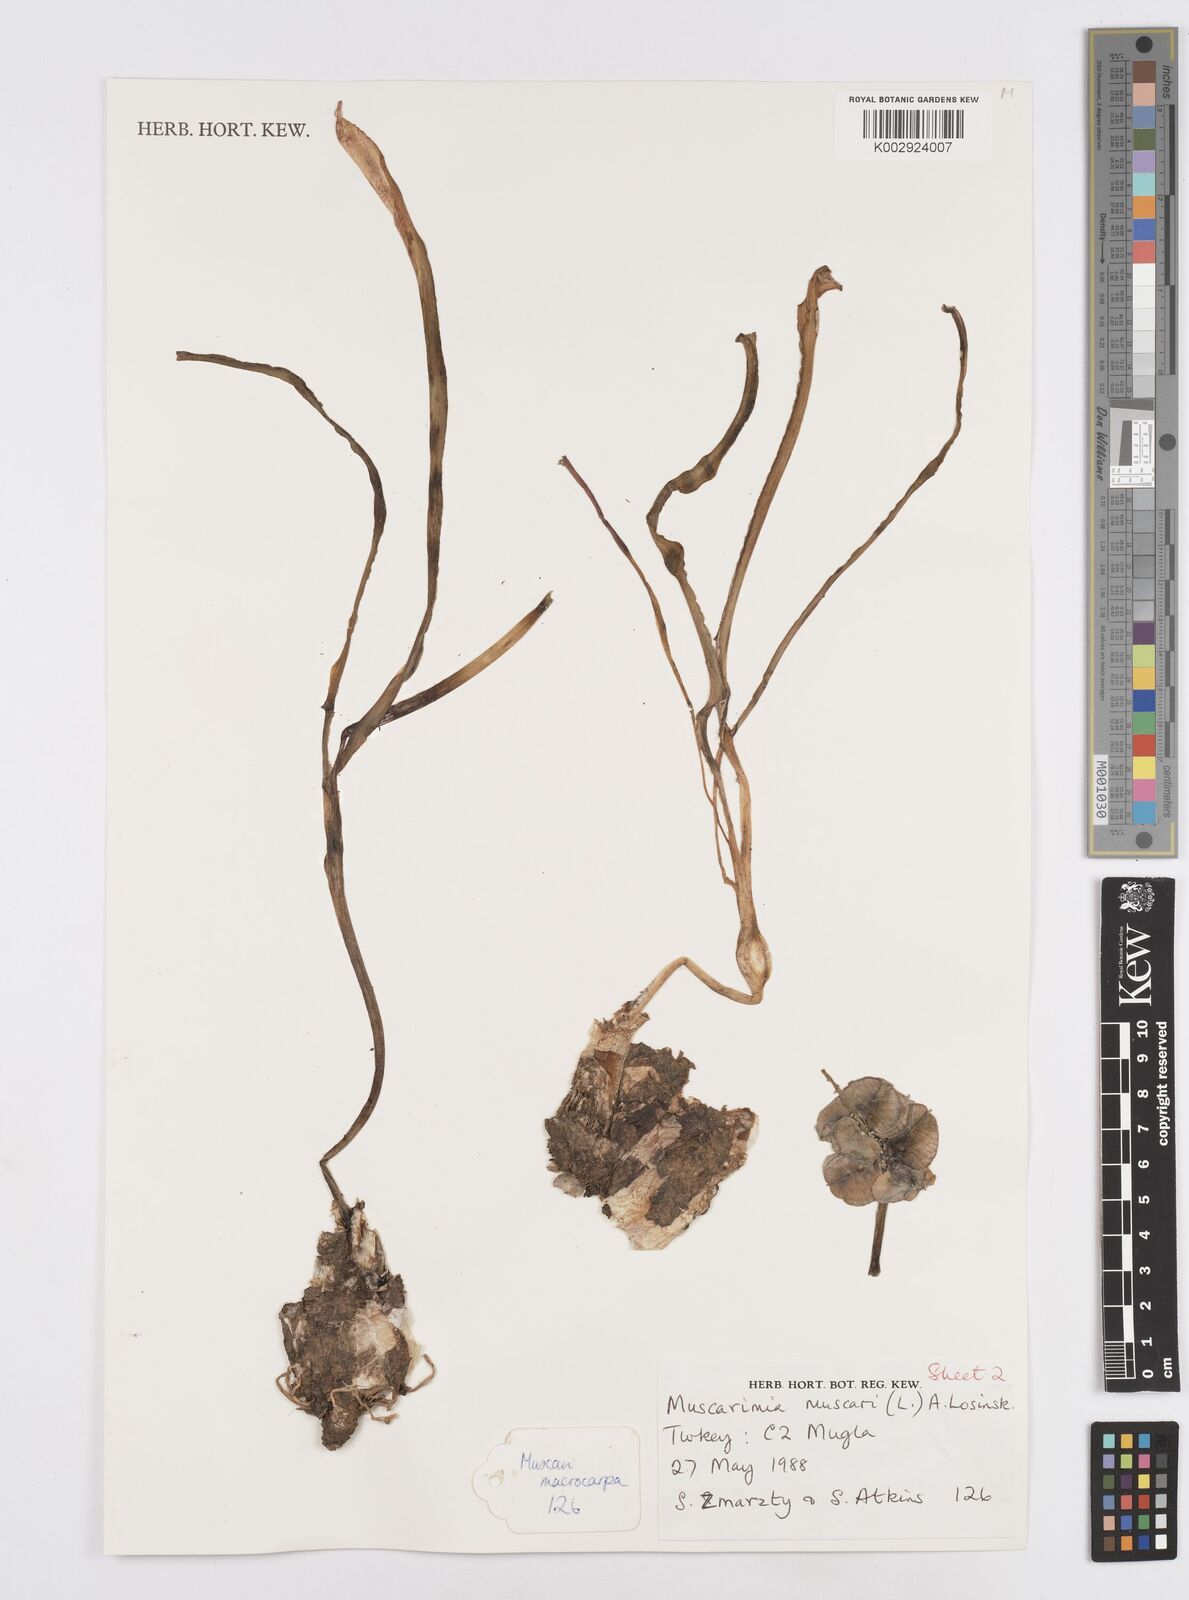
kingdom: Plantae
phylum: Tracheophyta
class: Liliopsida
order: Asparagales
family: Asparagaceae
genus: Muscari
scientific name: Muscari
